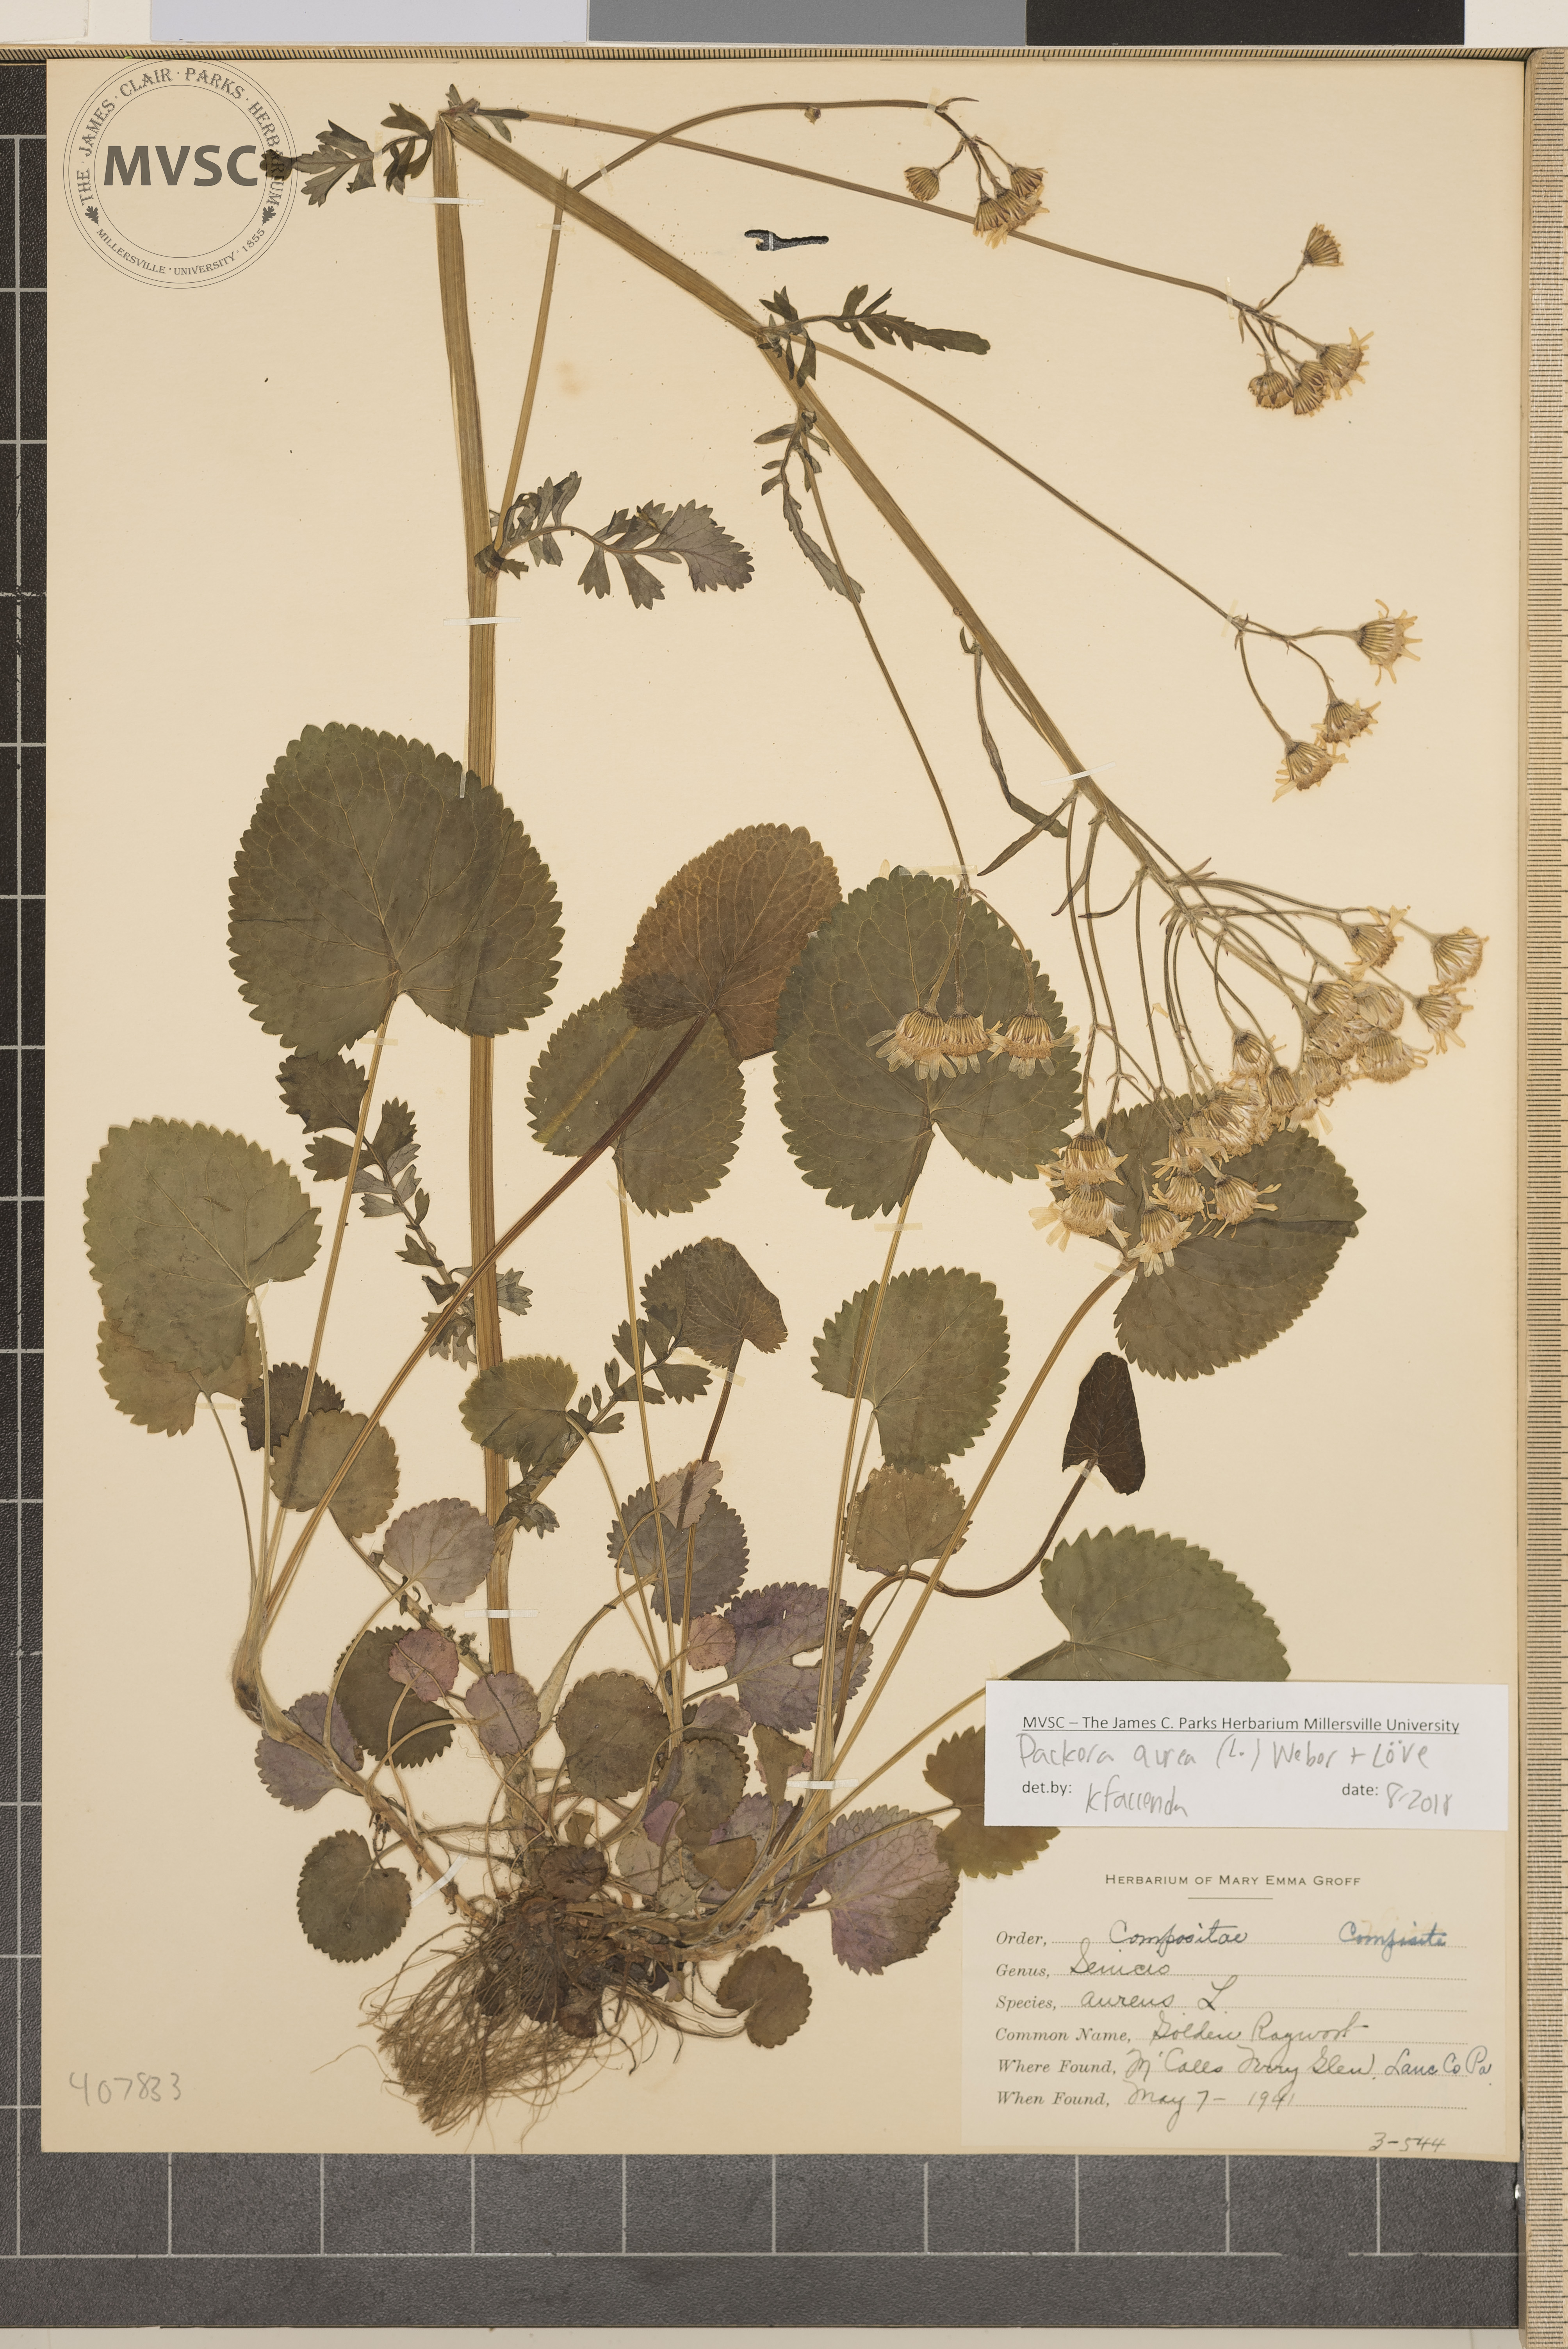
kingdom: Plantae
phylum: Tracheophyta
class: Magnoliopsida
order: Asterales
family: Asteraceae
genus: Packera
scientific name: Packera aurea
